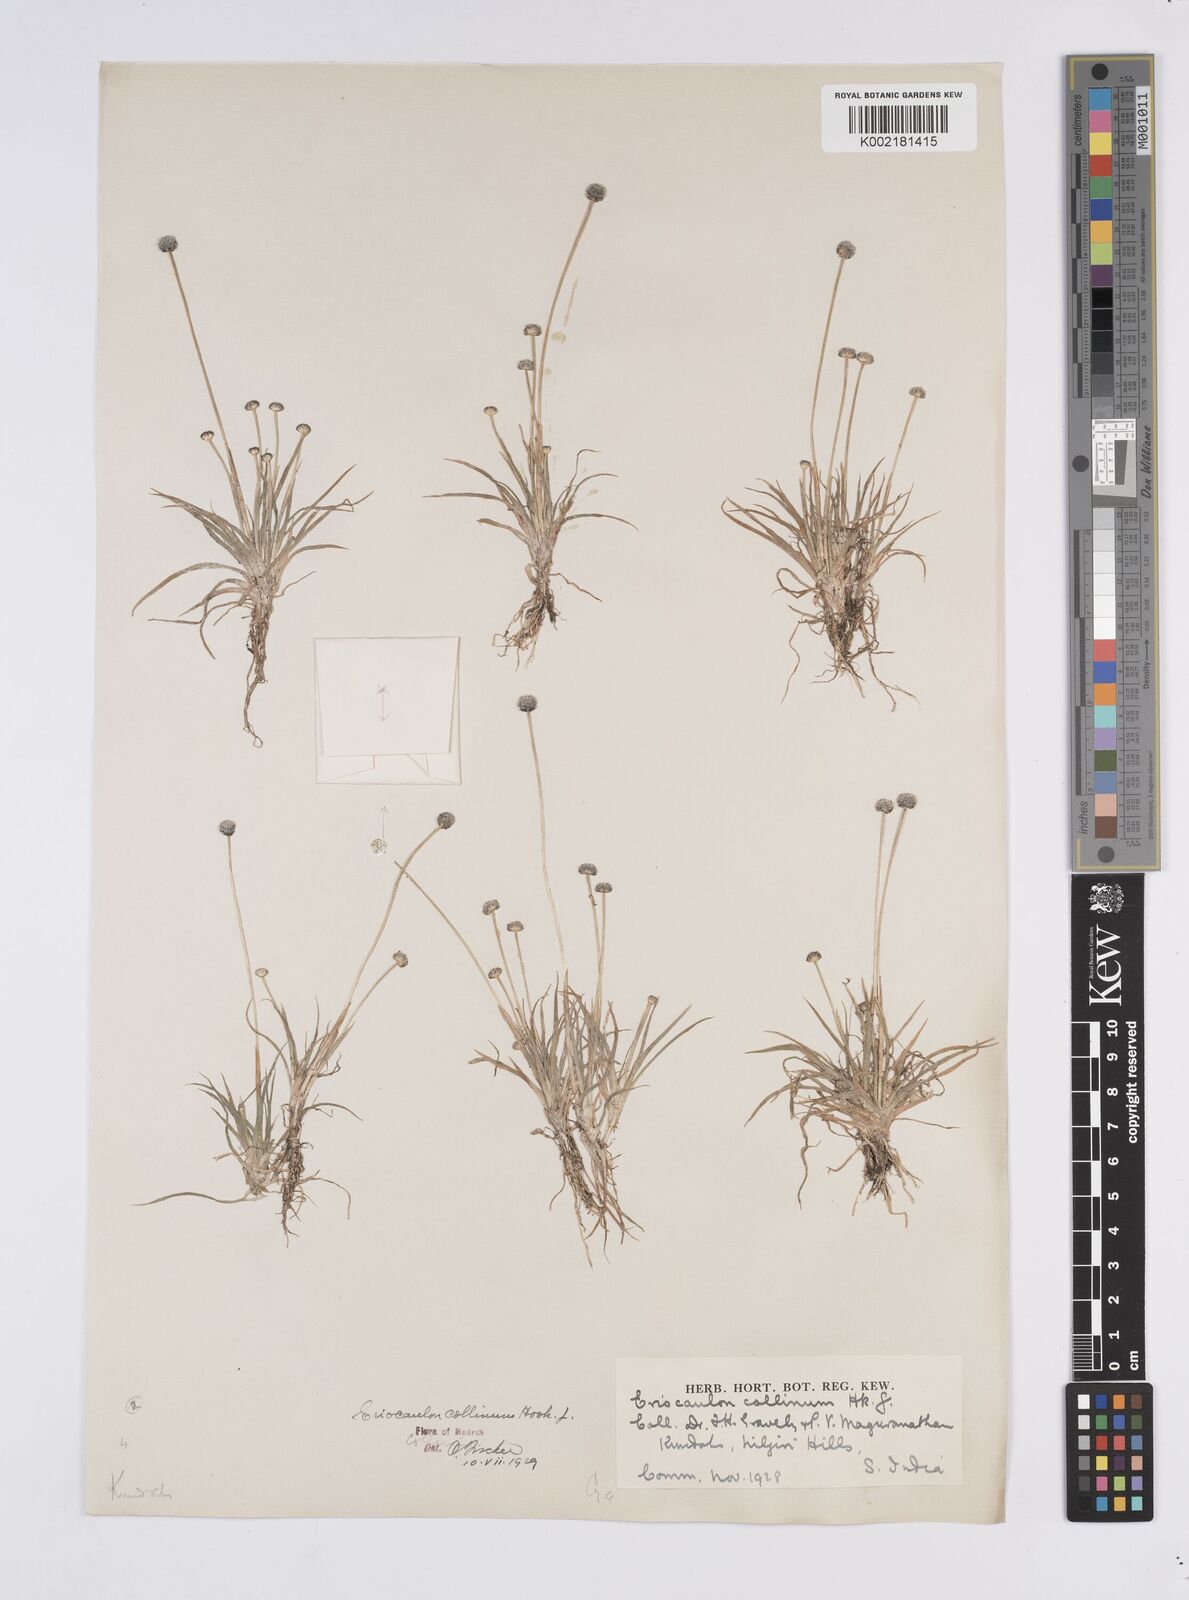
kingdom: Plantae
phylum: Tracheophyta
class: Liliopsida
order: Poales
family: Eriocaulaceae
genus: Eriocaulon
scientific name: Eriocaulon odoratum
